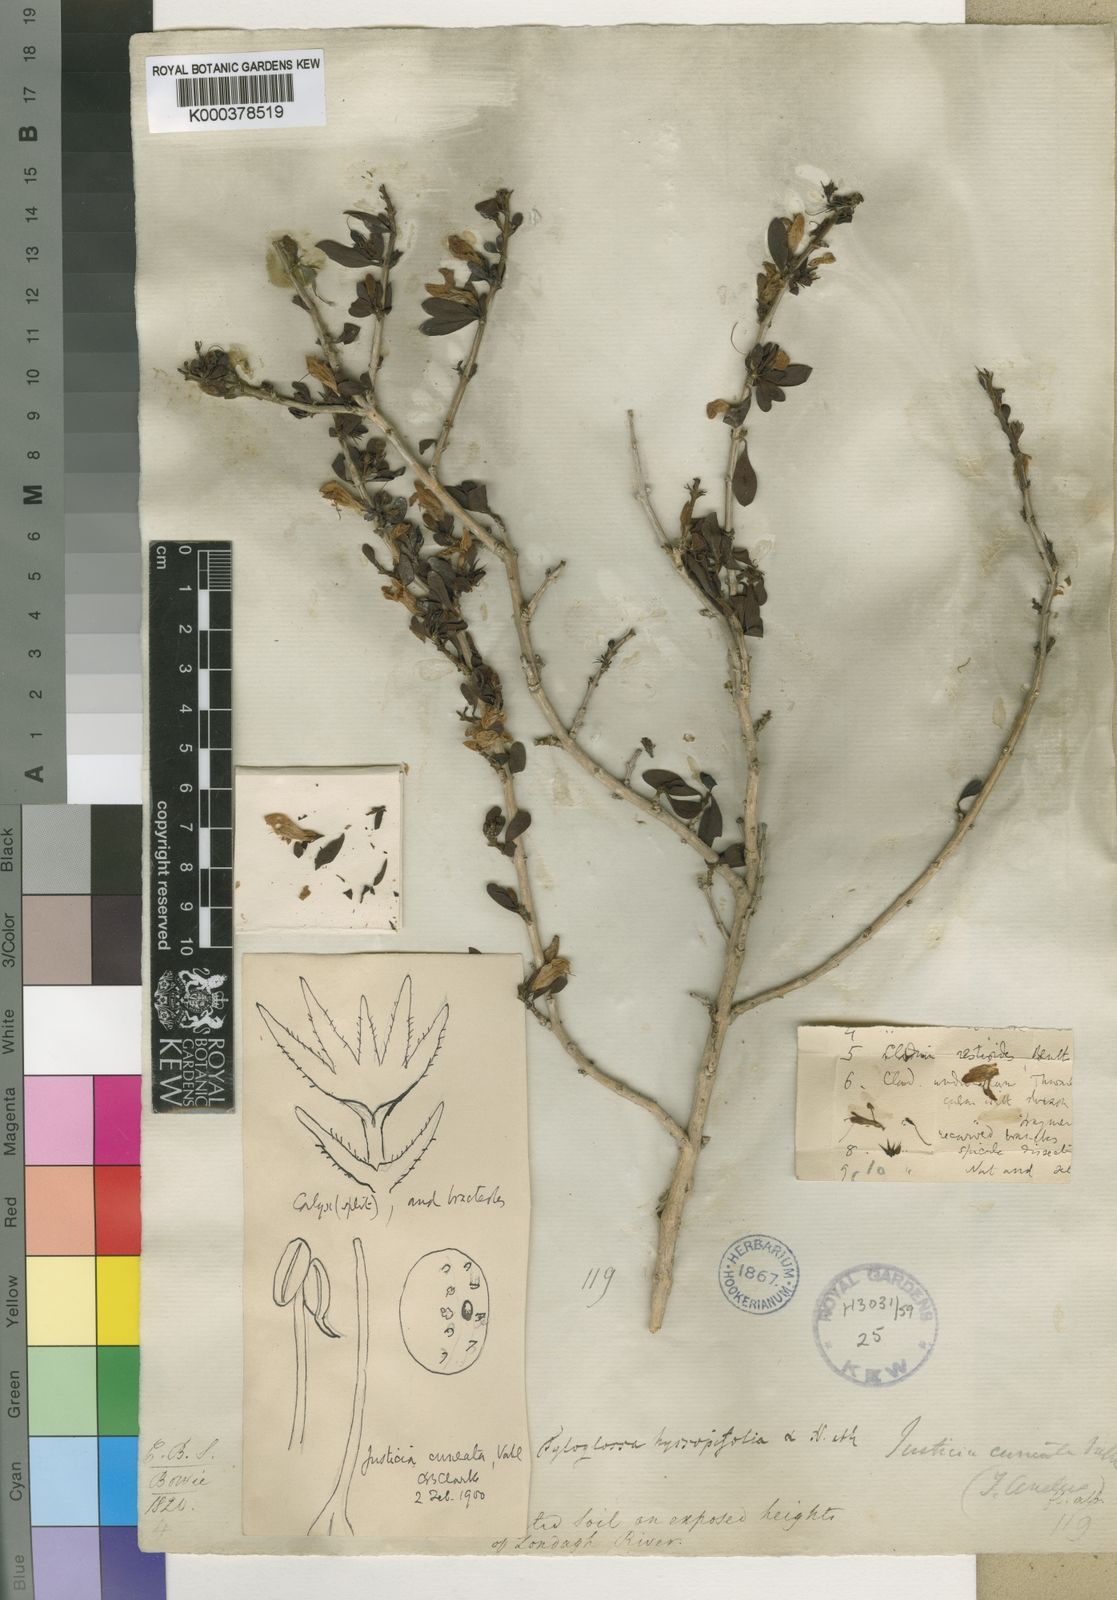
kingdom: Plantae
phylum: Tracheophyta
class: Magnoliopsida
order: Lamiales
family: Acanthaceae
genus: Justicia
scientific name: Justicia cuneata
